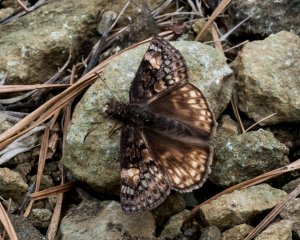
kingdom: Animalia
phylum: Arthropoda
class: Insecta
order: Lepidoptera
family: Hesperiidae
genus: Erynnis
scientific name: Erynnis
